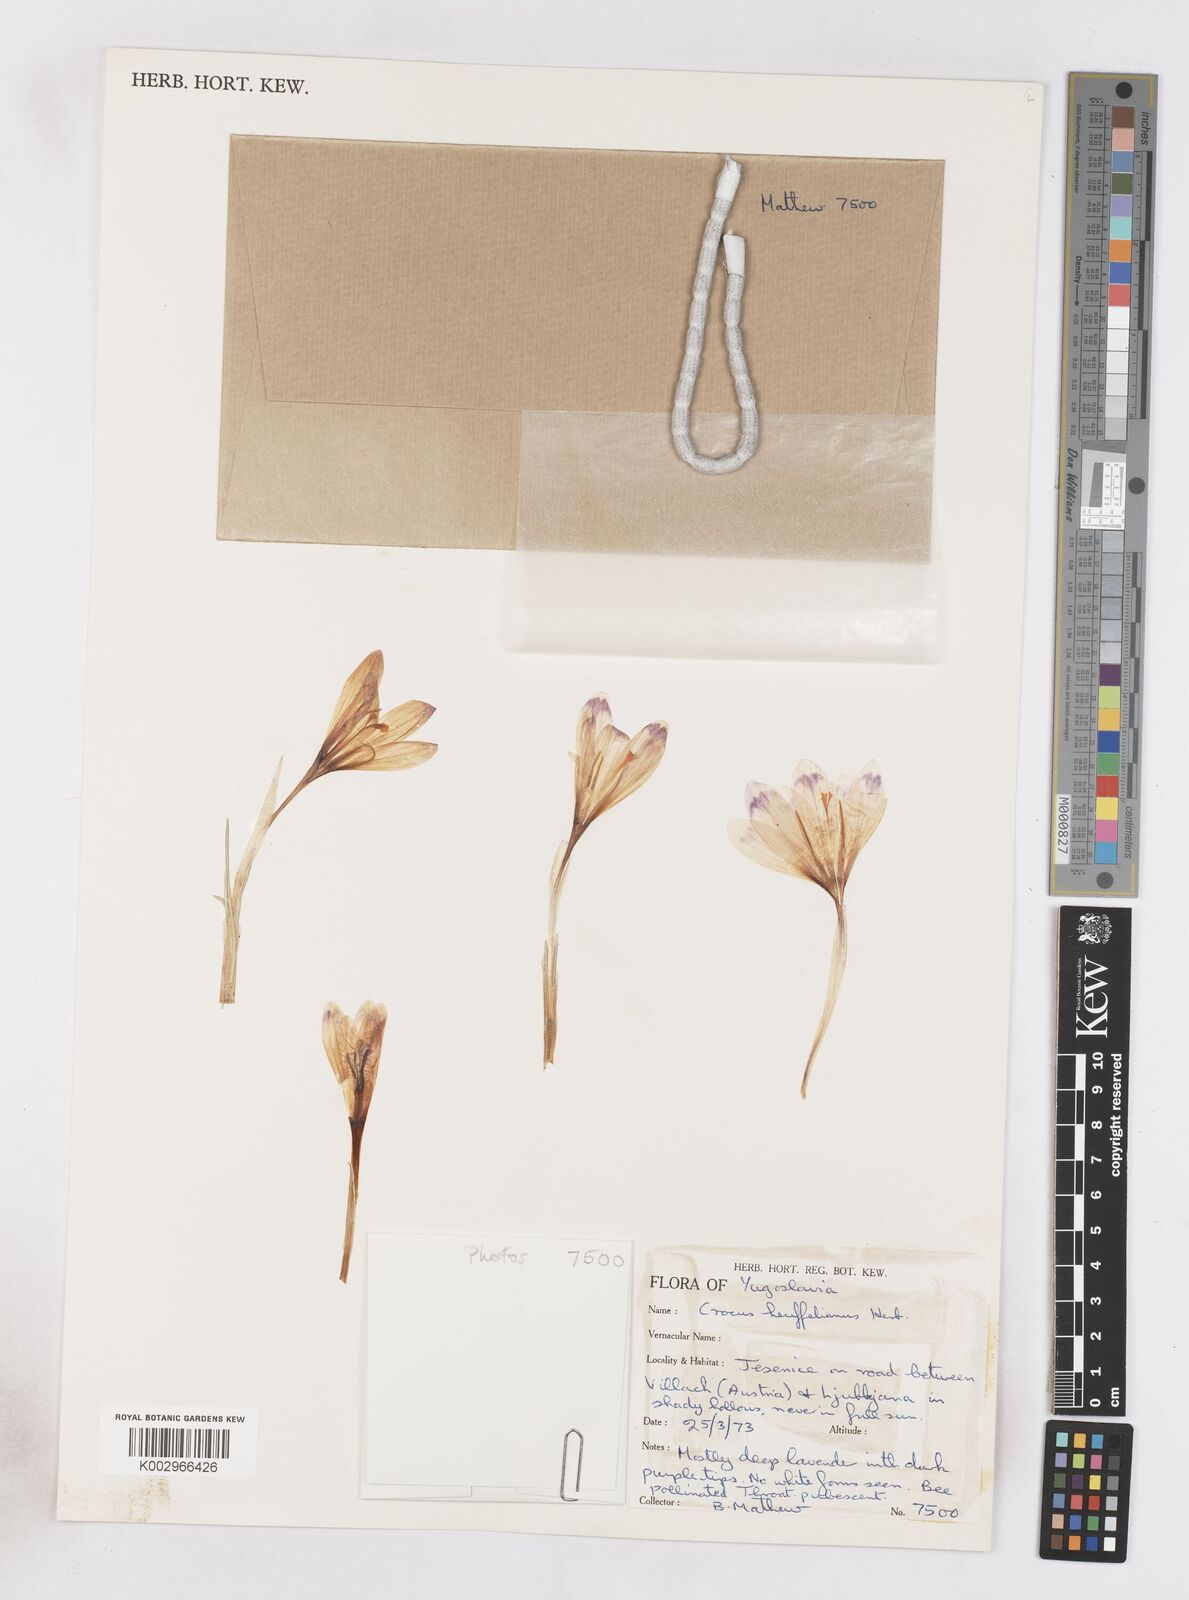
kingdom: Plantae
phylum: Tracheophyta
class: Liliopsida
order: Asparagales
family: Iridaceae
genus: Crocus
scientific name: Crocus vernus
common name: Spring crocus
